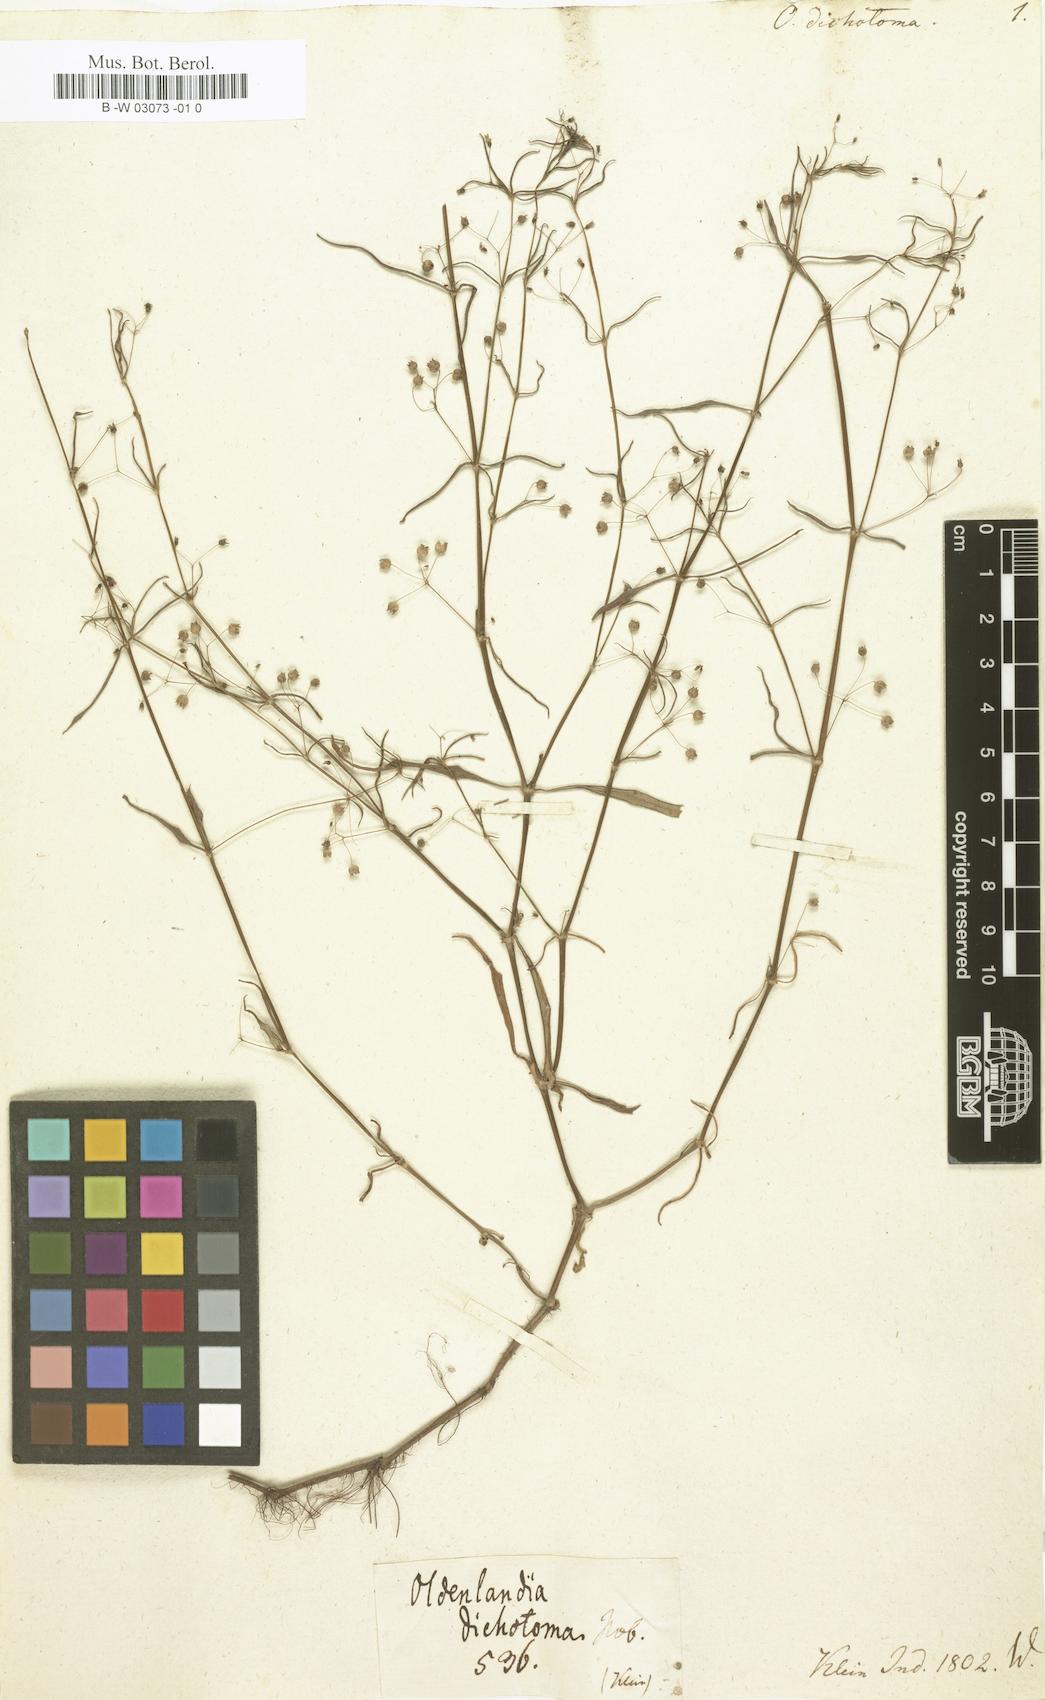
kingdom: Plantae
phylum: Tracheophyta
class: Magnoliopsida
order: Gentianales
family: Rubiaceae
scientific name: Rubiaceae
